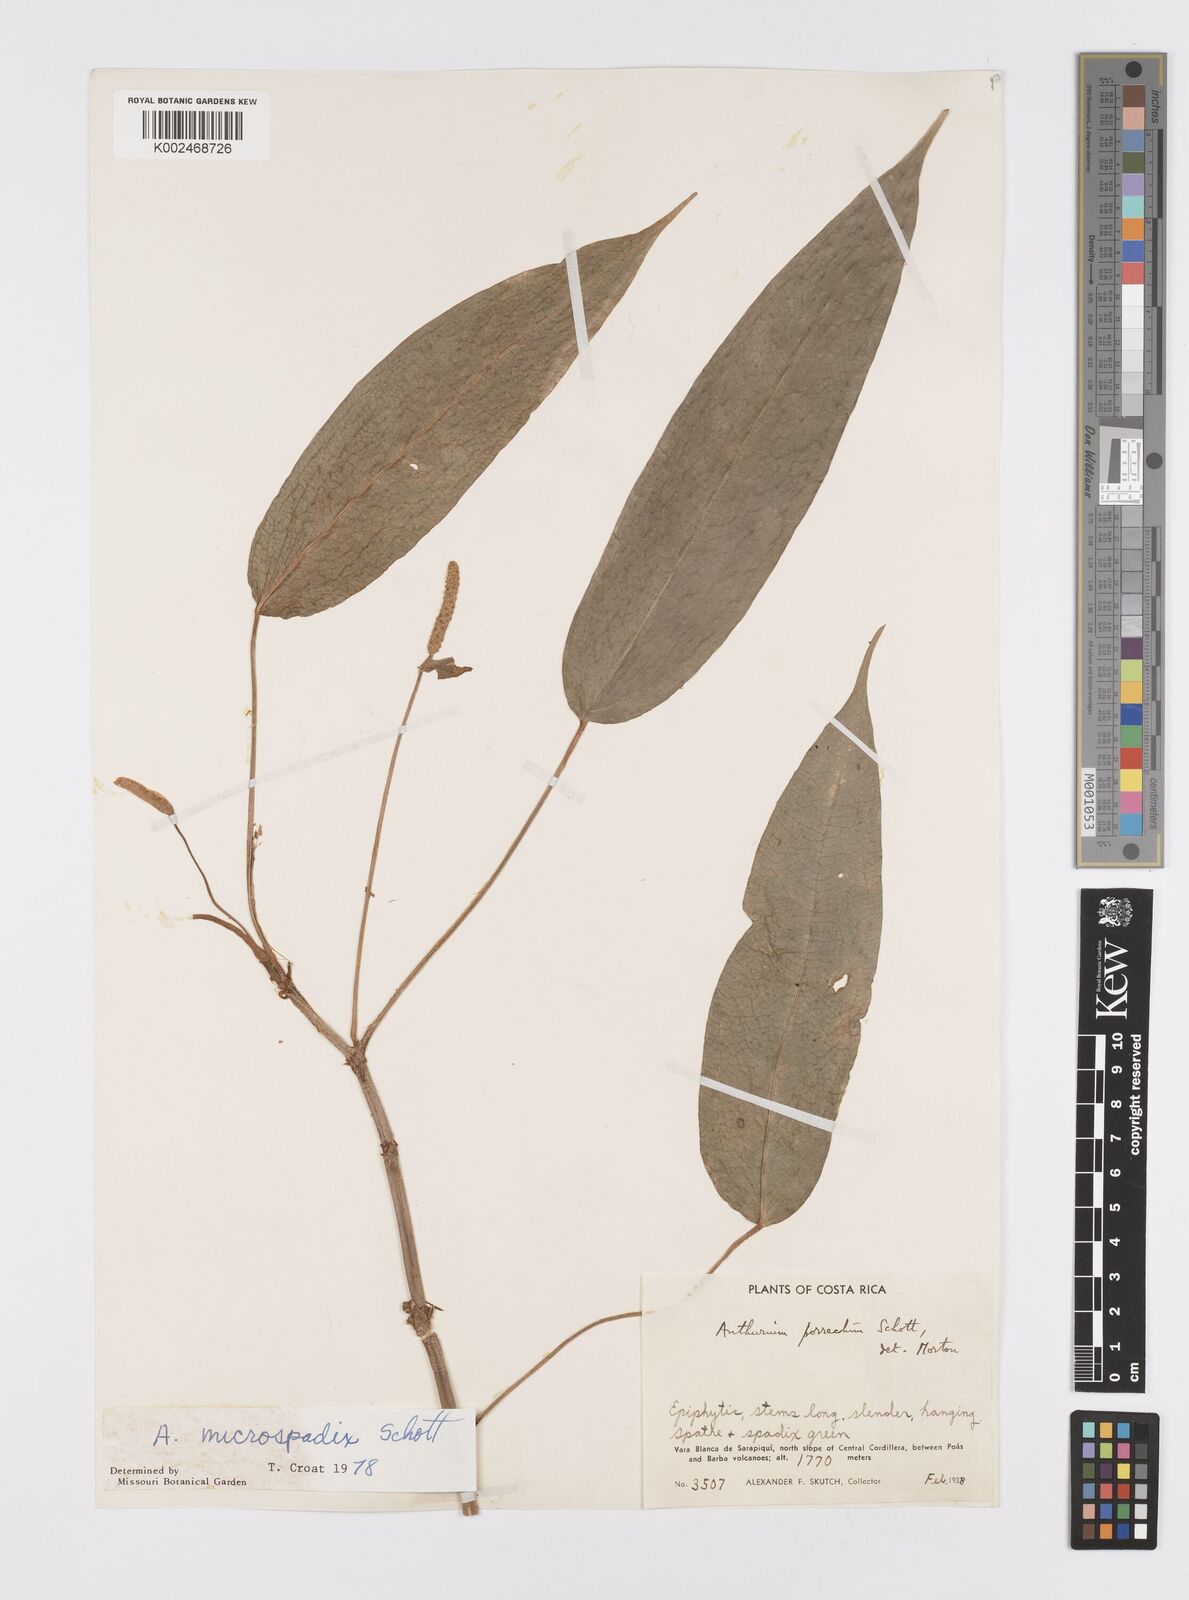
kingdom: Plantae
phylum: Tracheophyta
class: Liliopsida
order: Alismatales
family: Araceae
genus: Anthurium
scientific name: Anthurium microspadix
